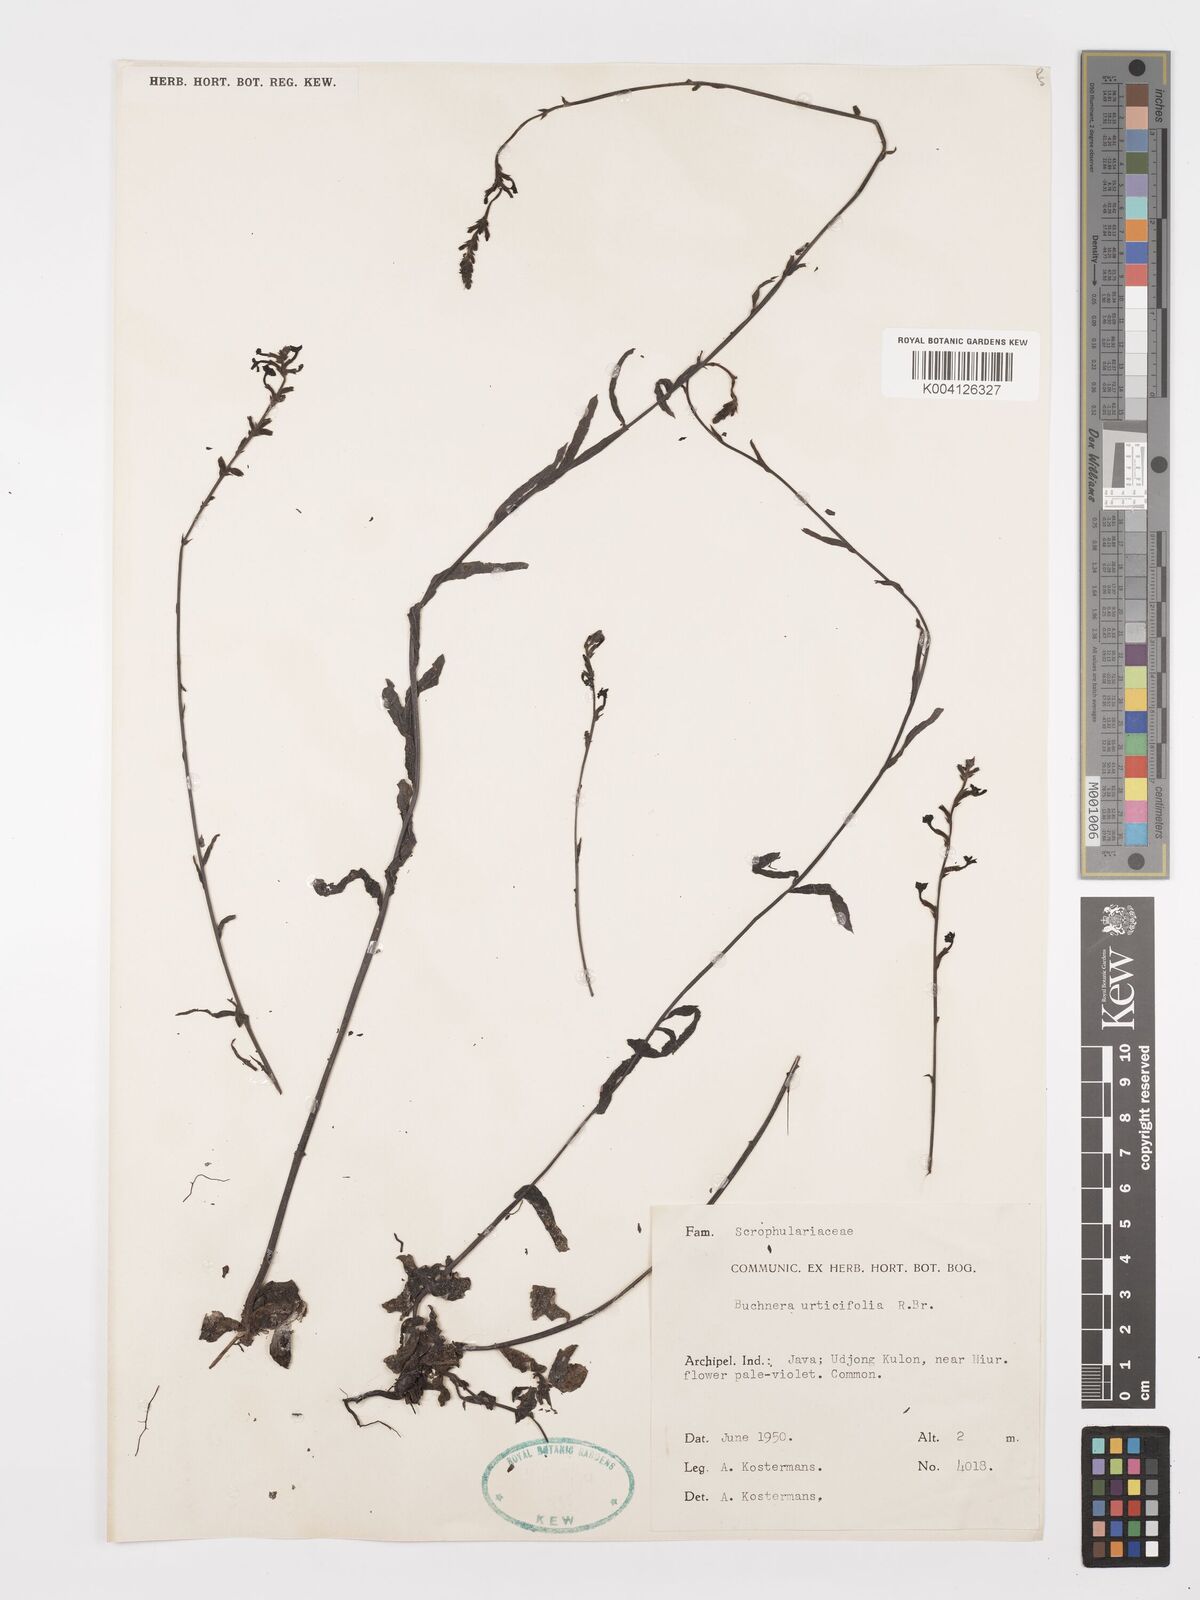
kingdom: Plantae
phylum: Tracheophyta
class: Magnoliopsida
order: Lamiales
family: Orobanchaceae
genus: Buchnera
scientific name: Buchnera urticifolia
